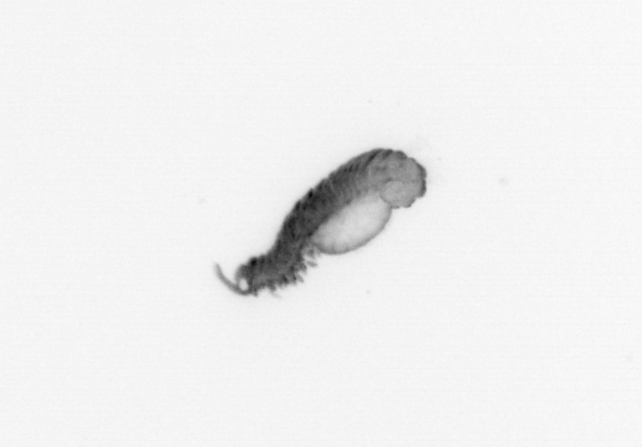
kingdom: Animalia
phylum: Annelida
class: Polychaeta
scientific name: Polychaeta
